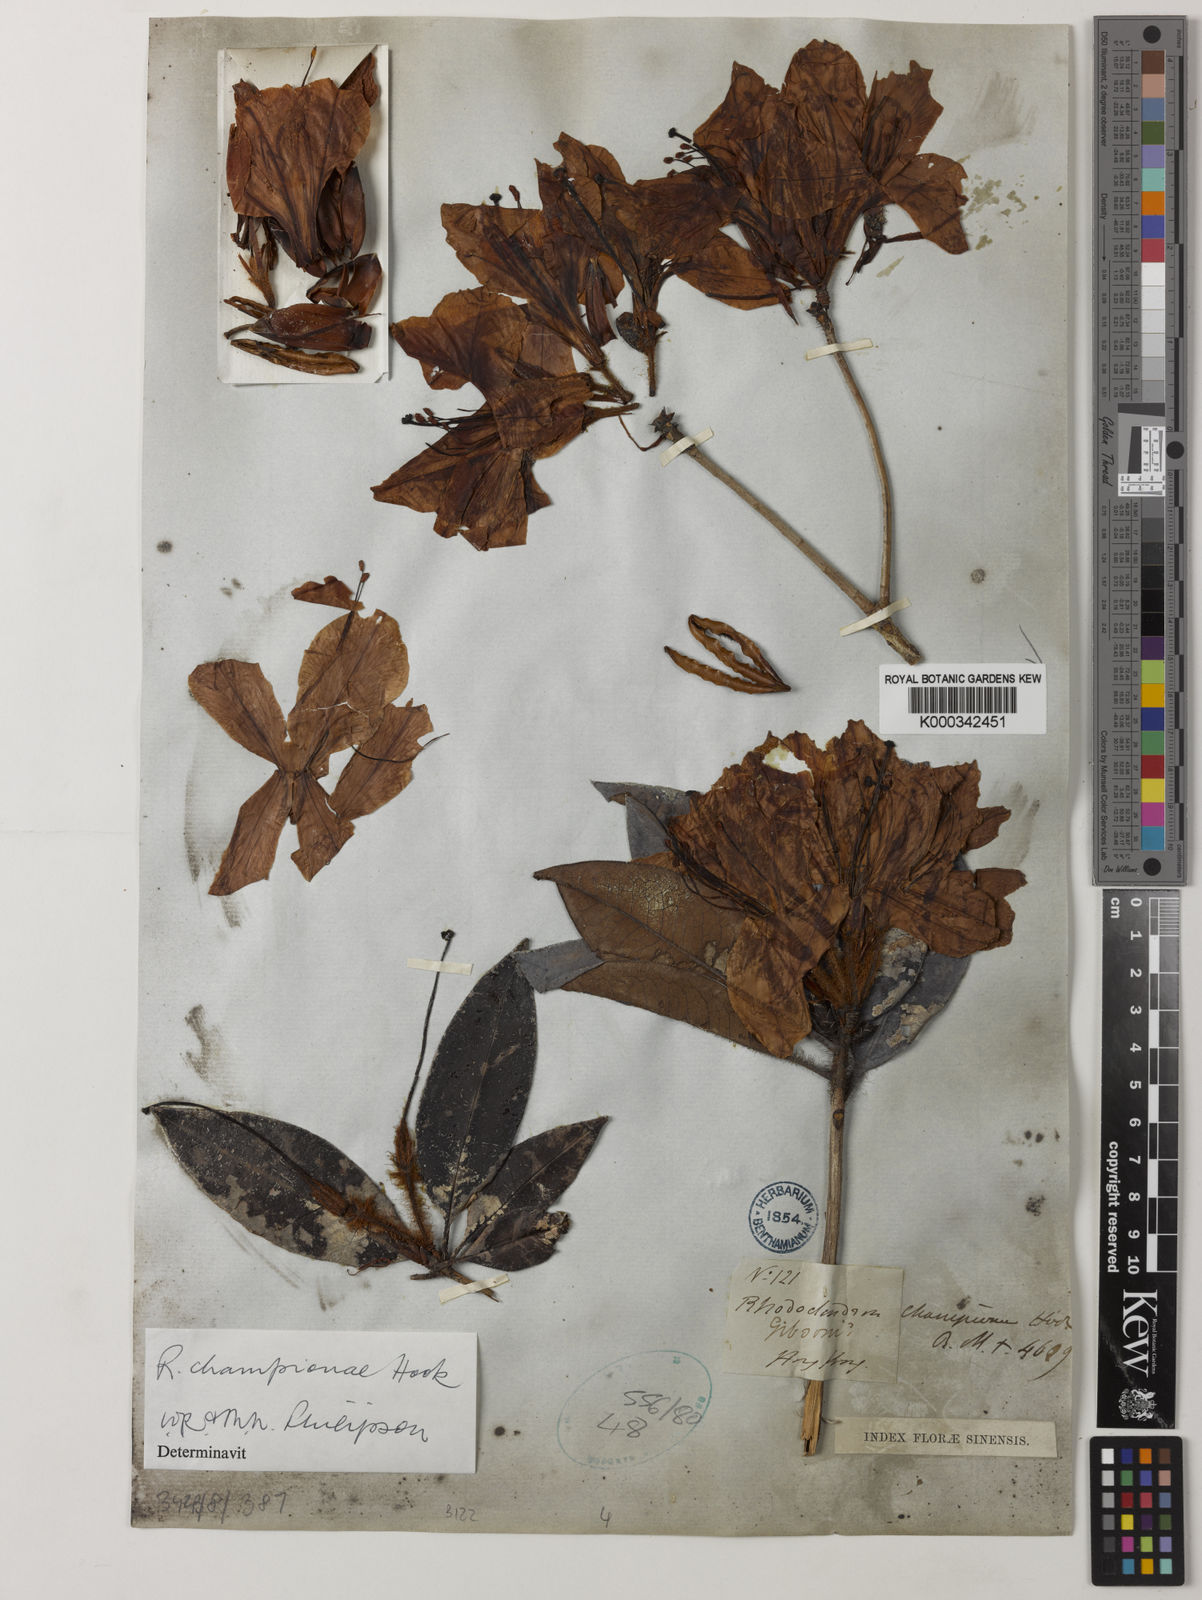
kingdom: Plantae
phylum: Tracheophyta
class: Magnoliopsida
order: Ericales
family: Ericaceae
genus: Rhododendron
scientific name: Rhododendron championiae
